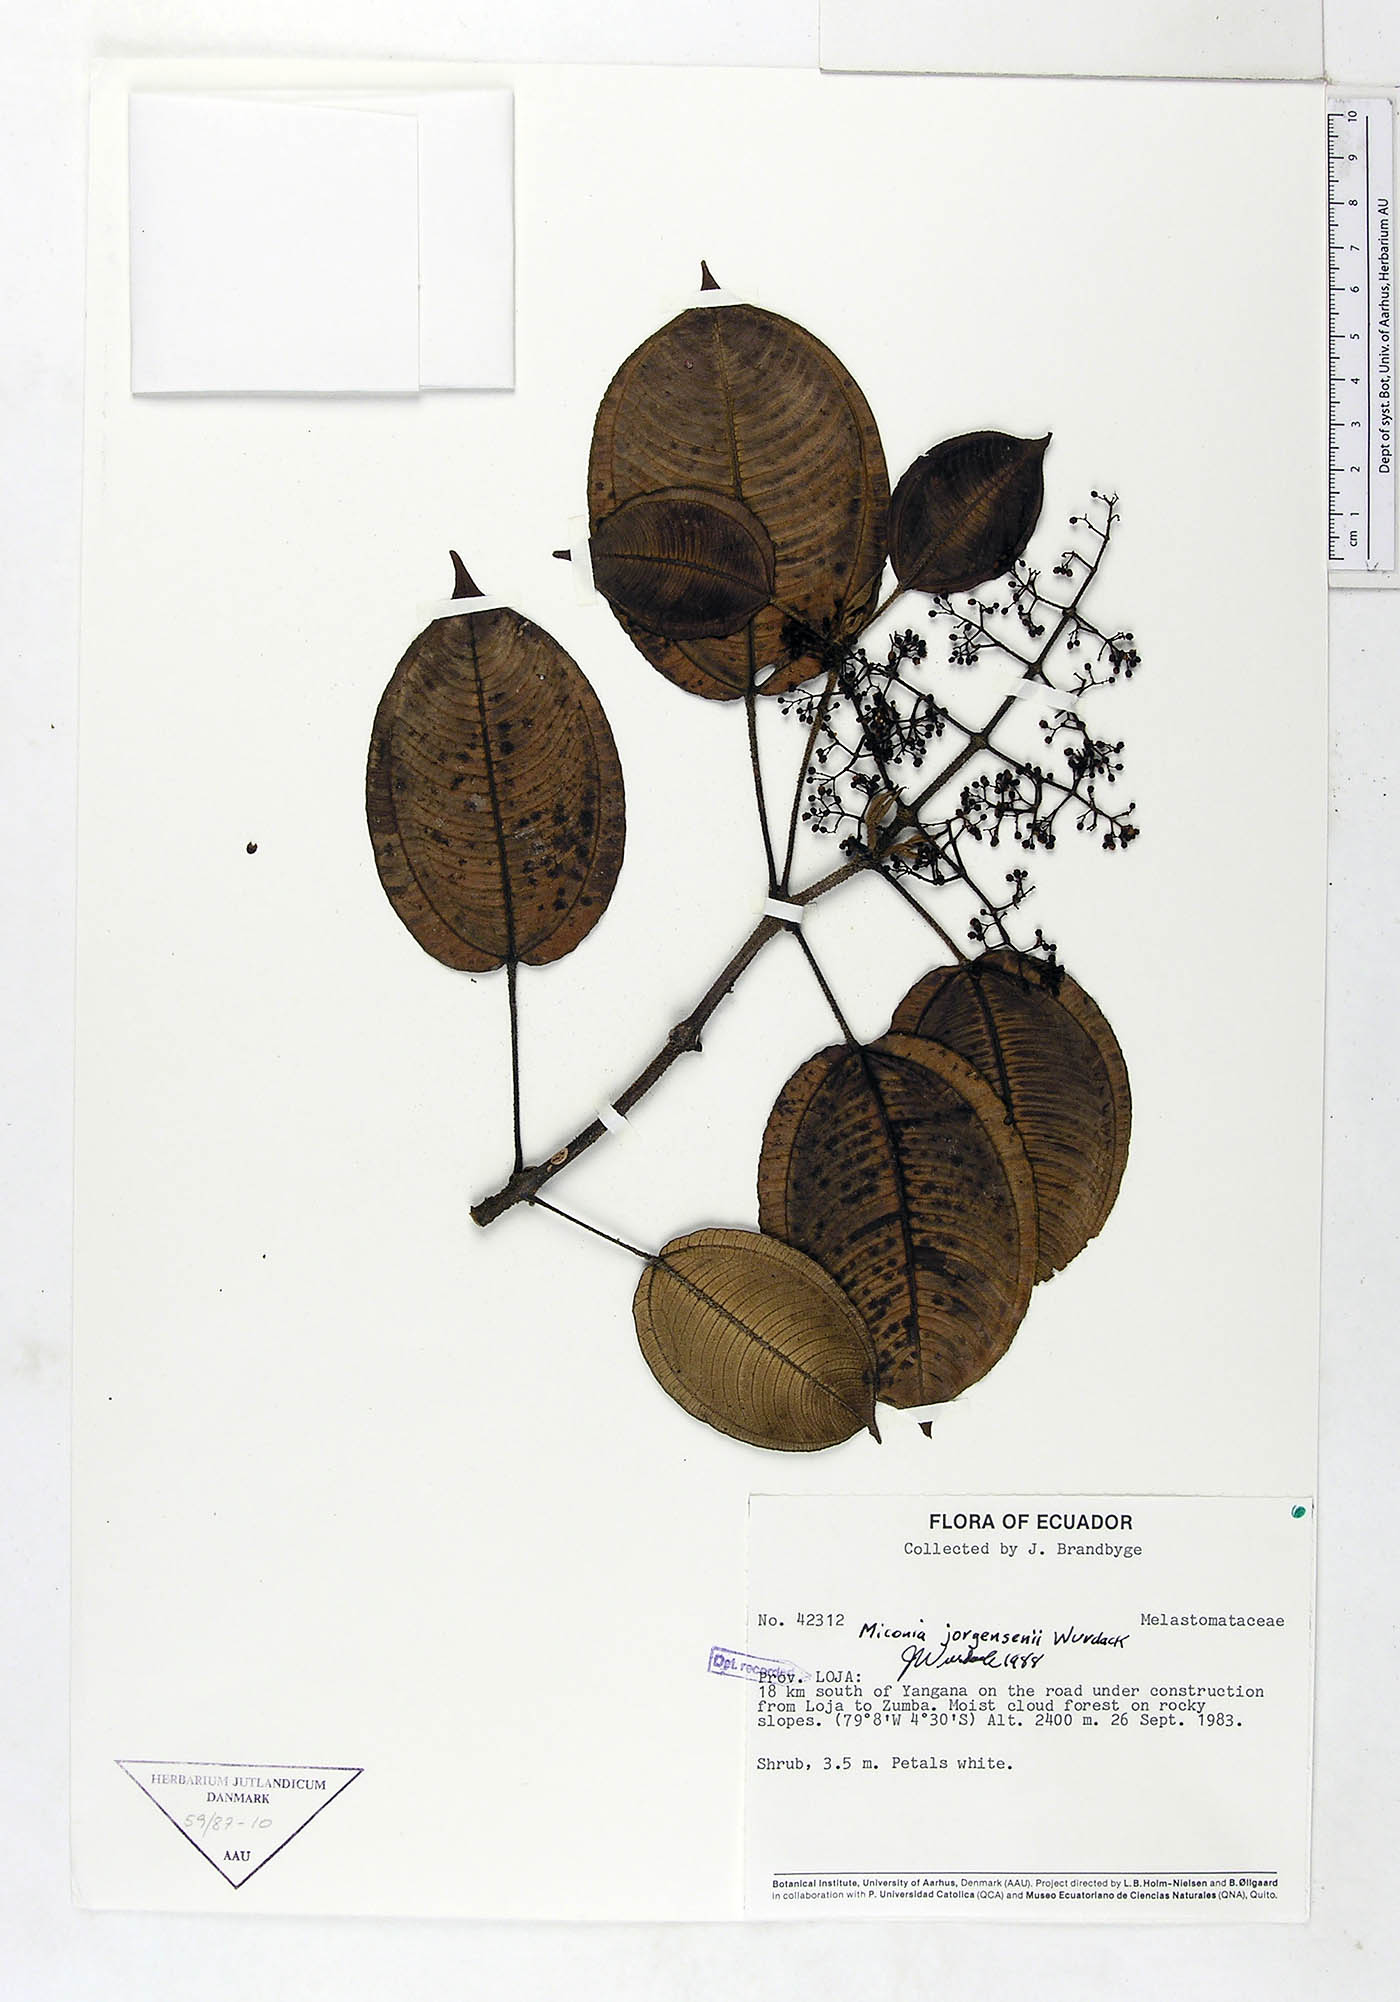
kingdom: Plantae
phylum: Tracheophyta
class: Magnoliopsida
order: Myrtales
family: Melastomataceae
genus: Miconia
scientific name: Miconia jorgensenii
